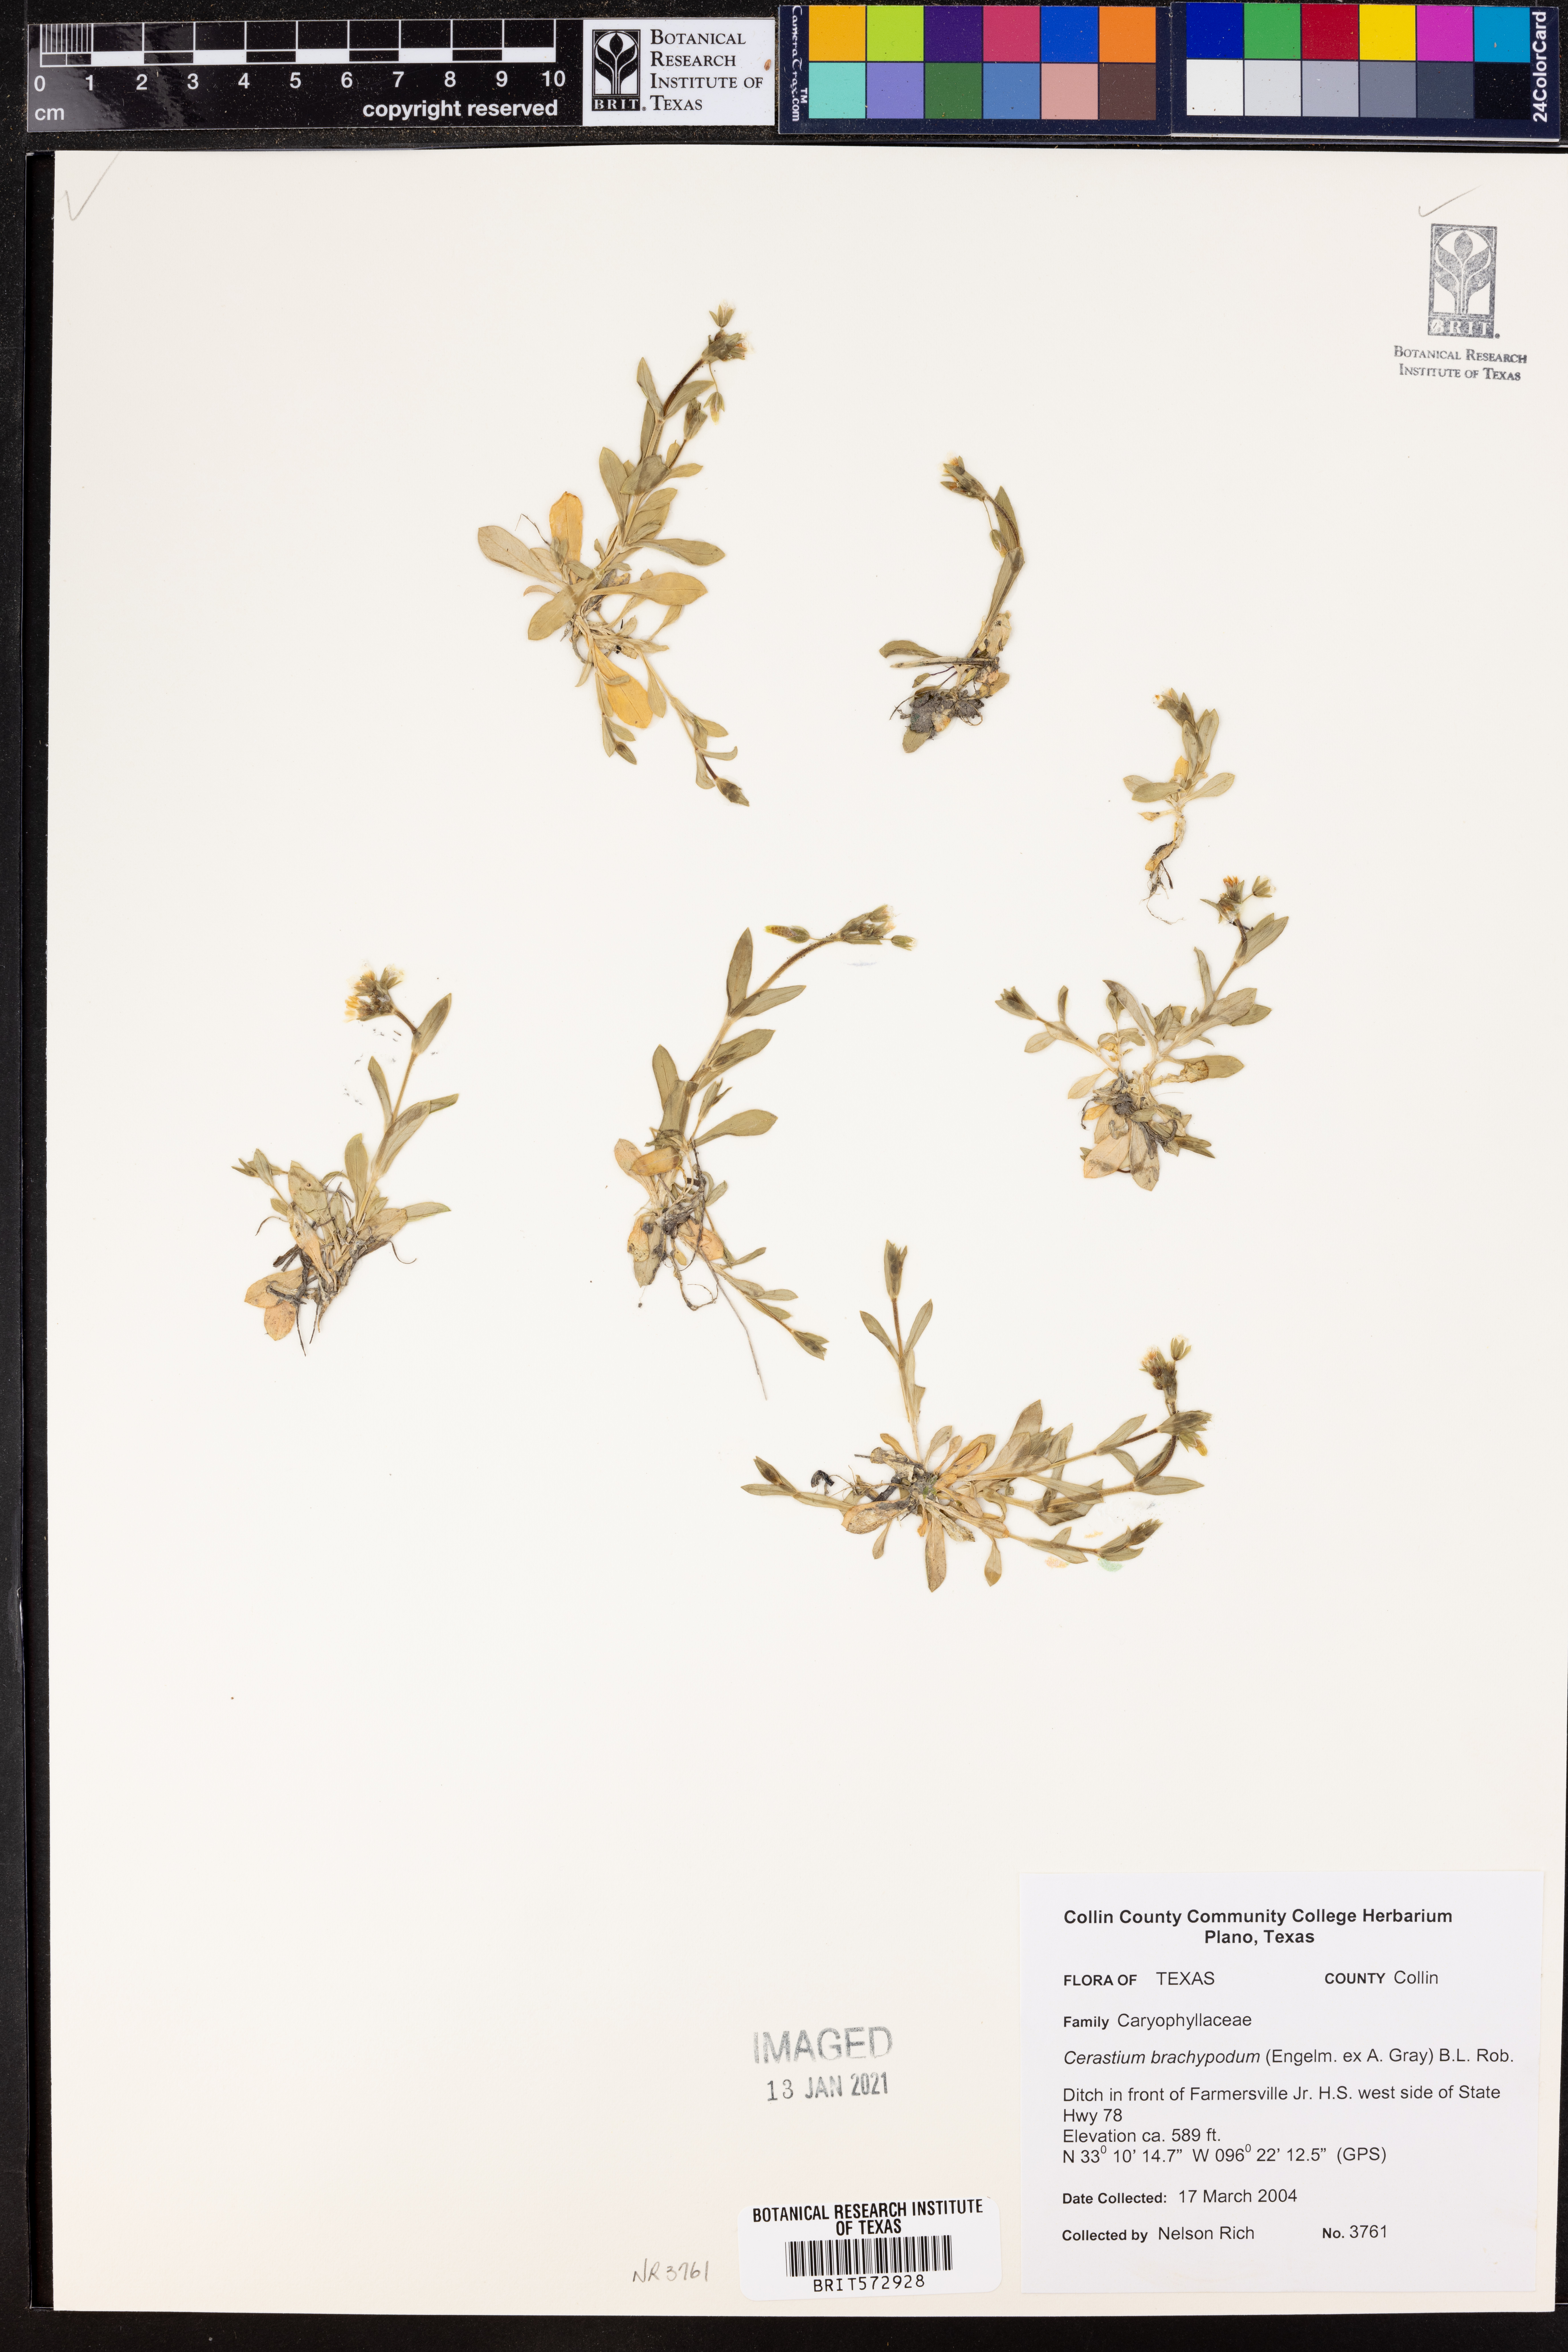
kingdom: Plantae
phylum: Tracheophyta
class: Magnoliopsida
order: Caryophyllales
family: Caryophyllaceae
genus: Cerastium
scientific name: Cerastium brachypodum
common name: Short-pedicelled nodding chickweed
